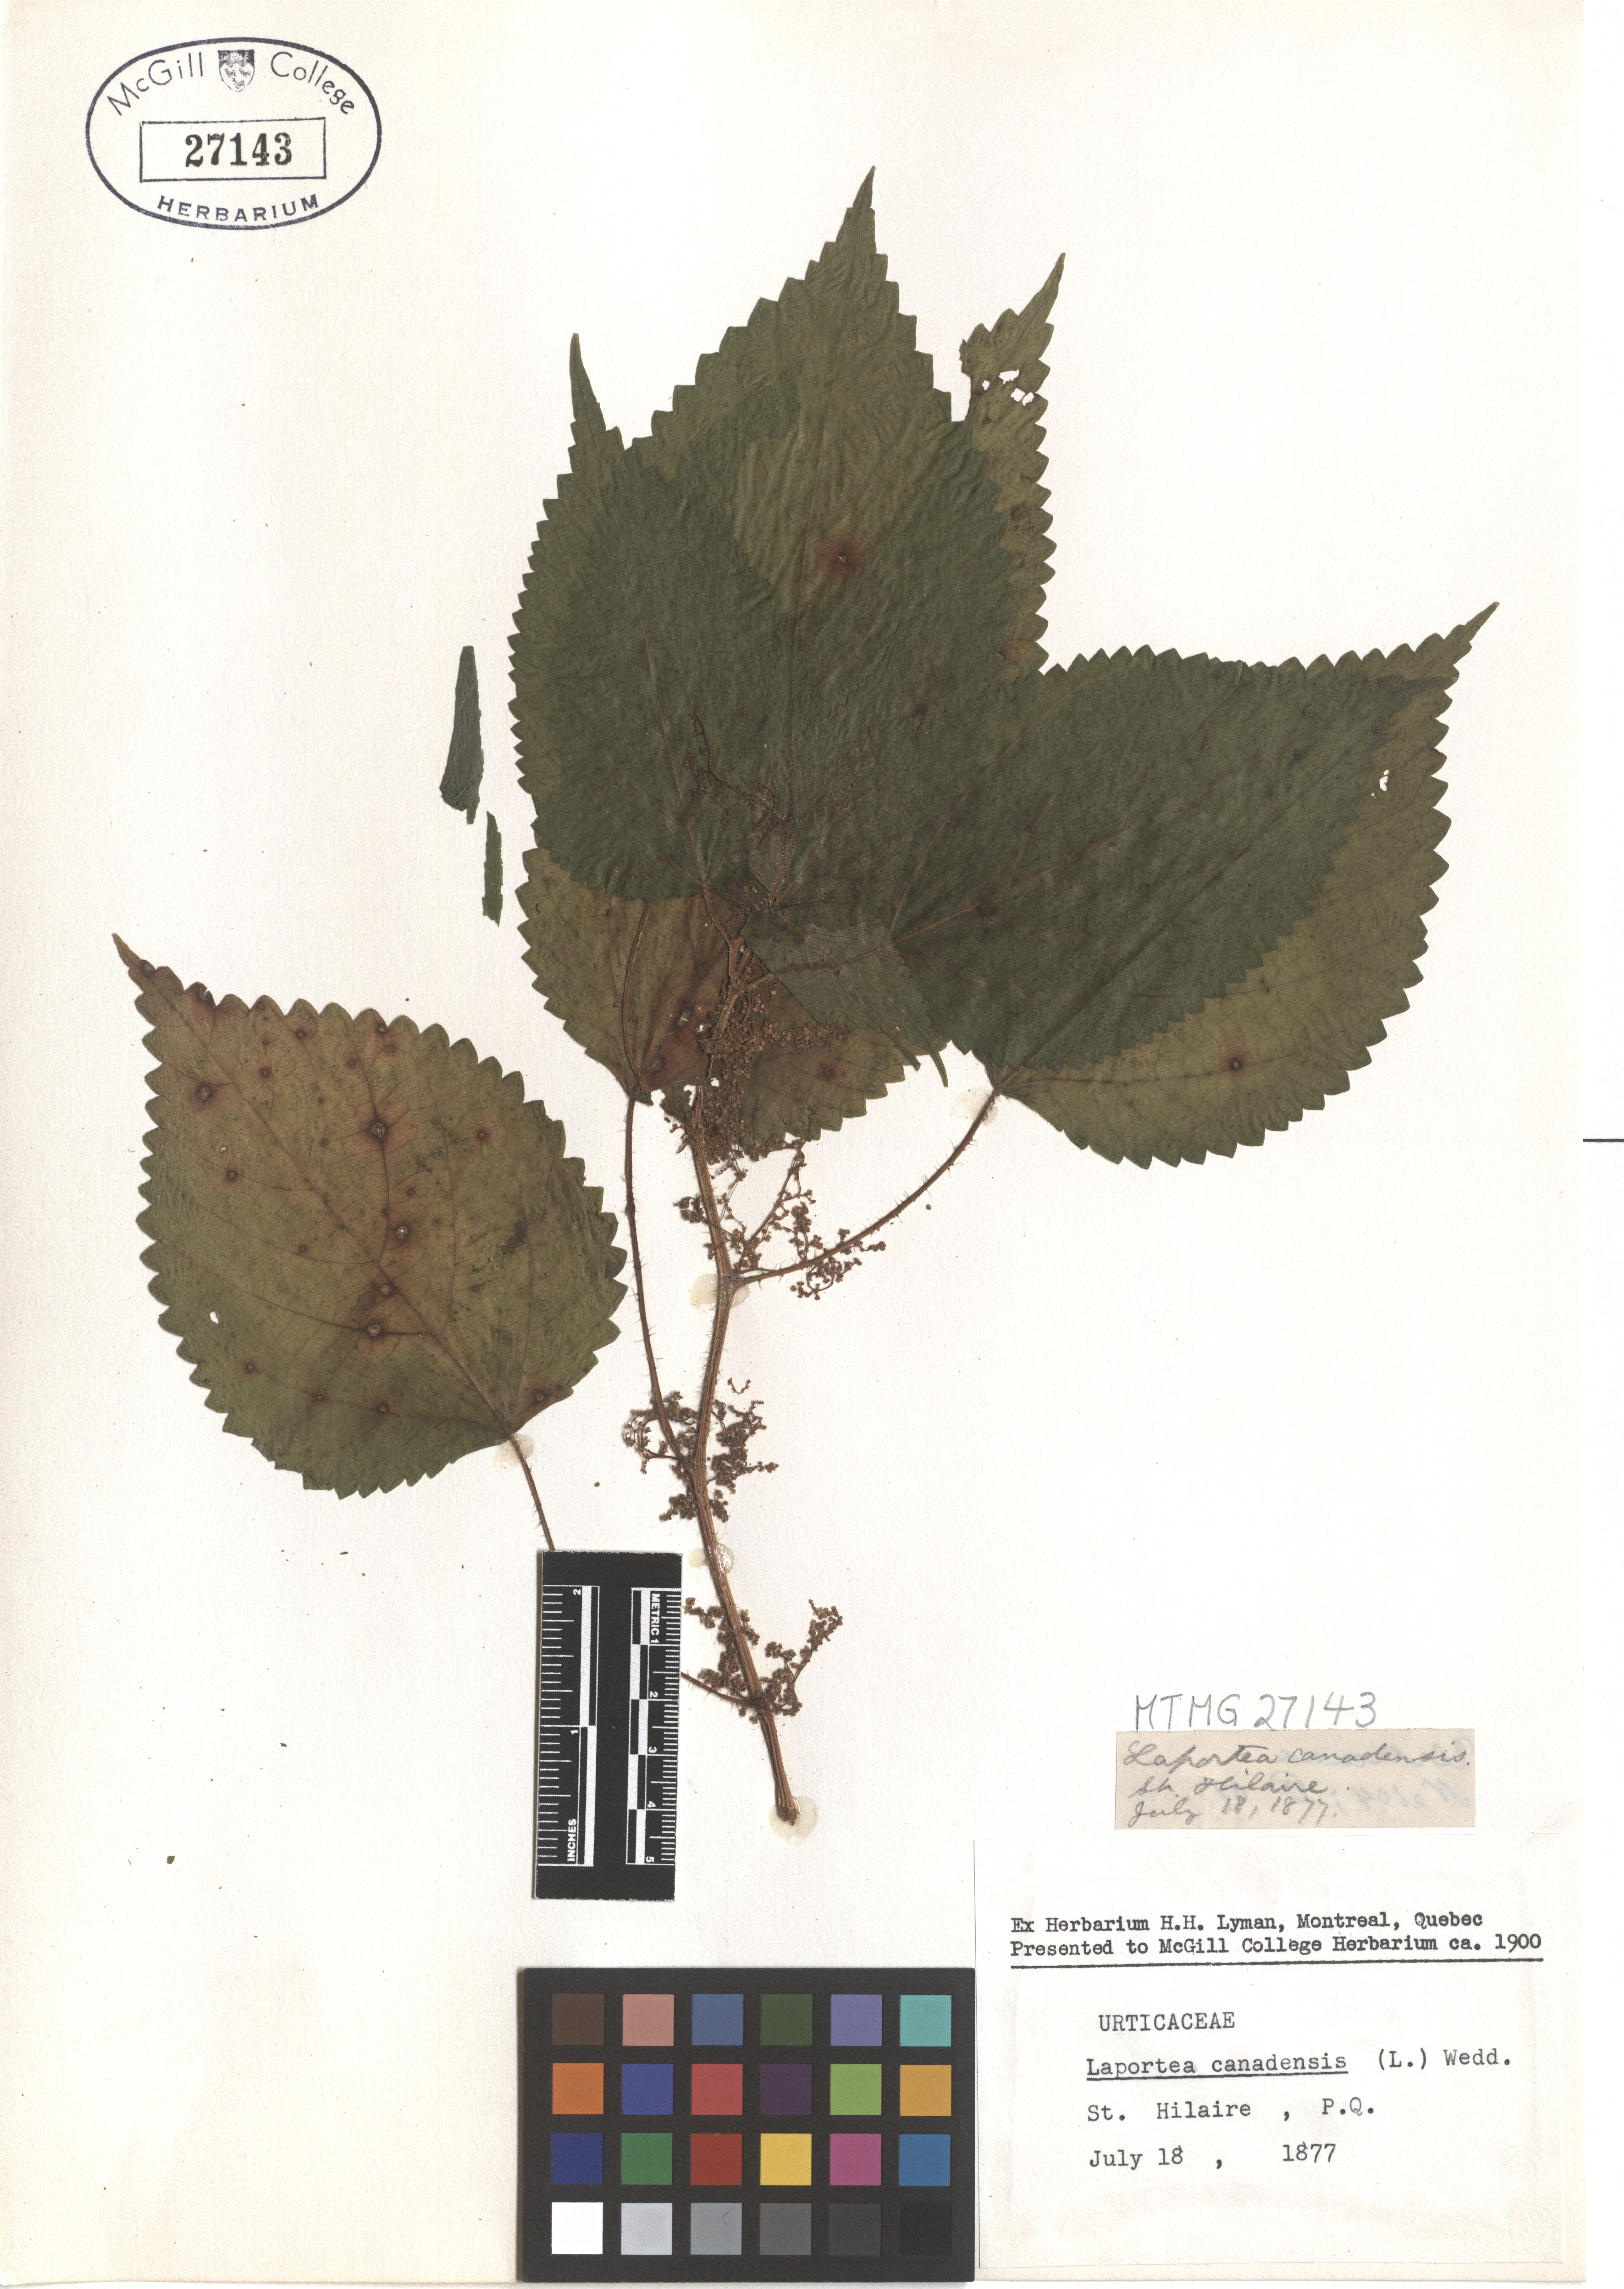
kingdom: Plantae
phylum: Tracheophyta
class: Magnoliopsida
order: Rosales
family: Urticaceae
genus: Laportea
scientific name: Laportea canadensis
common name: Canada nettle
